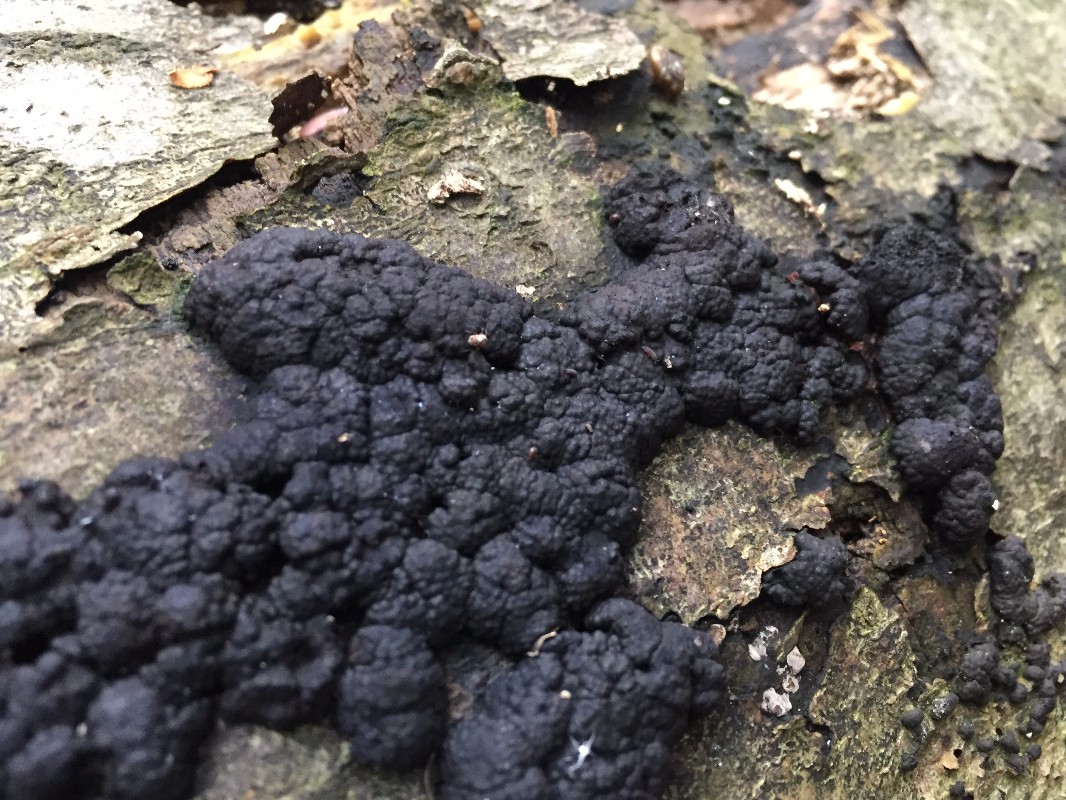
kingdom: Fungi
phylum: Ascomycota
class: Sordariomycetes
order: Xylariales
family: Hypoxylaceae
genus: Jackrogersella
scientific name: Jackrogersella cohaerens
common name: sammenflydende kulbær
